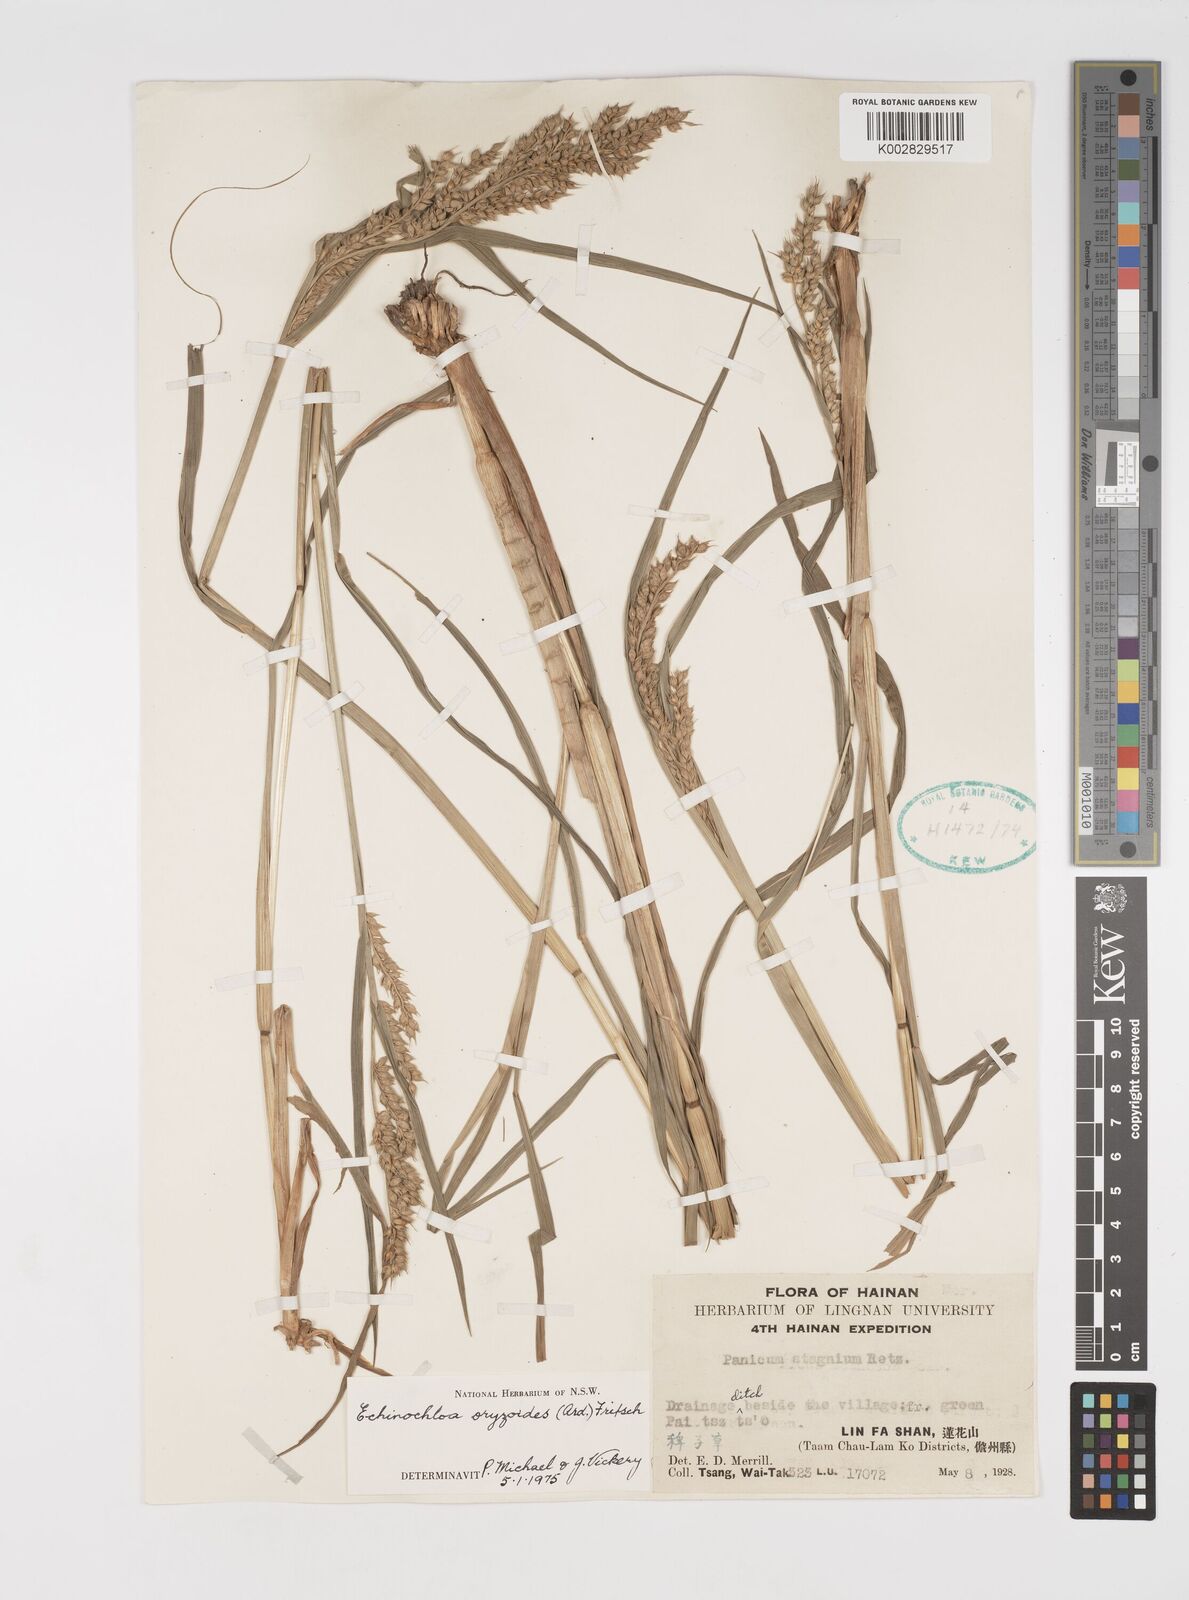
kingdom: Plantae
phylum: Tracheophyta
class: Liliopsida
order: Poales
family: Poaceae
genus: Echinochloa
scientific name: Echinochloa oryzoides
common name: Early water grass
